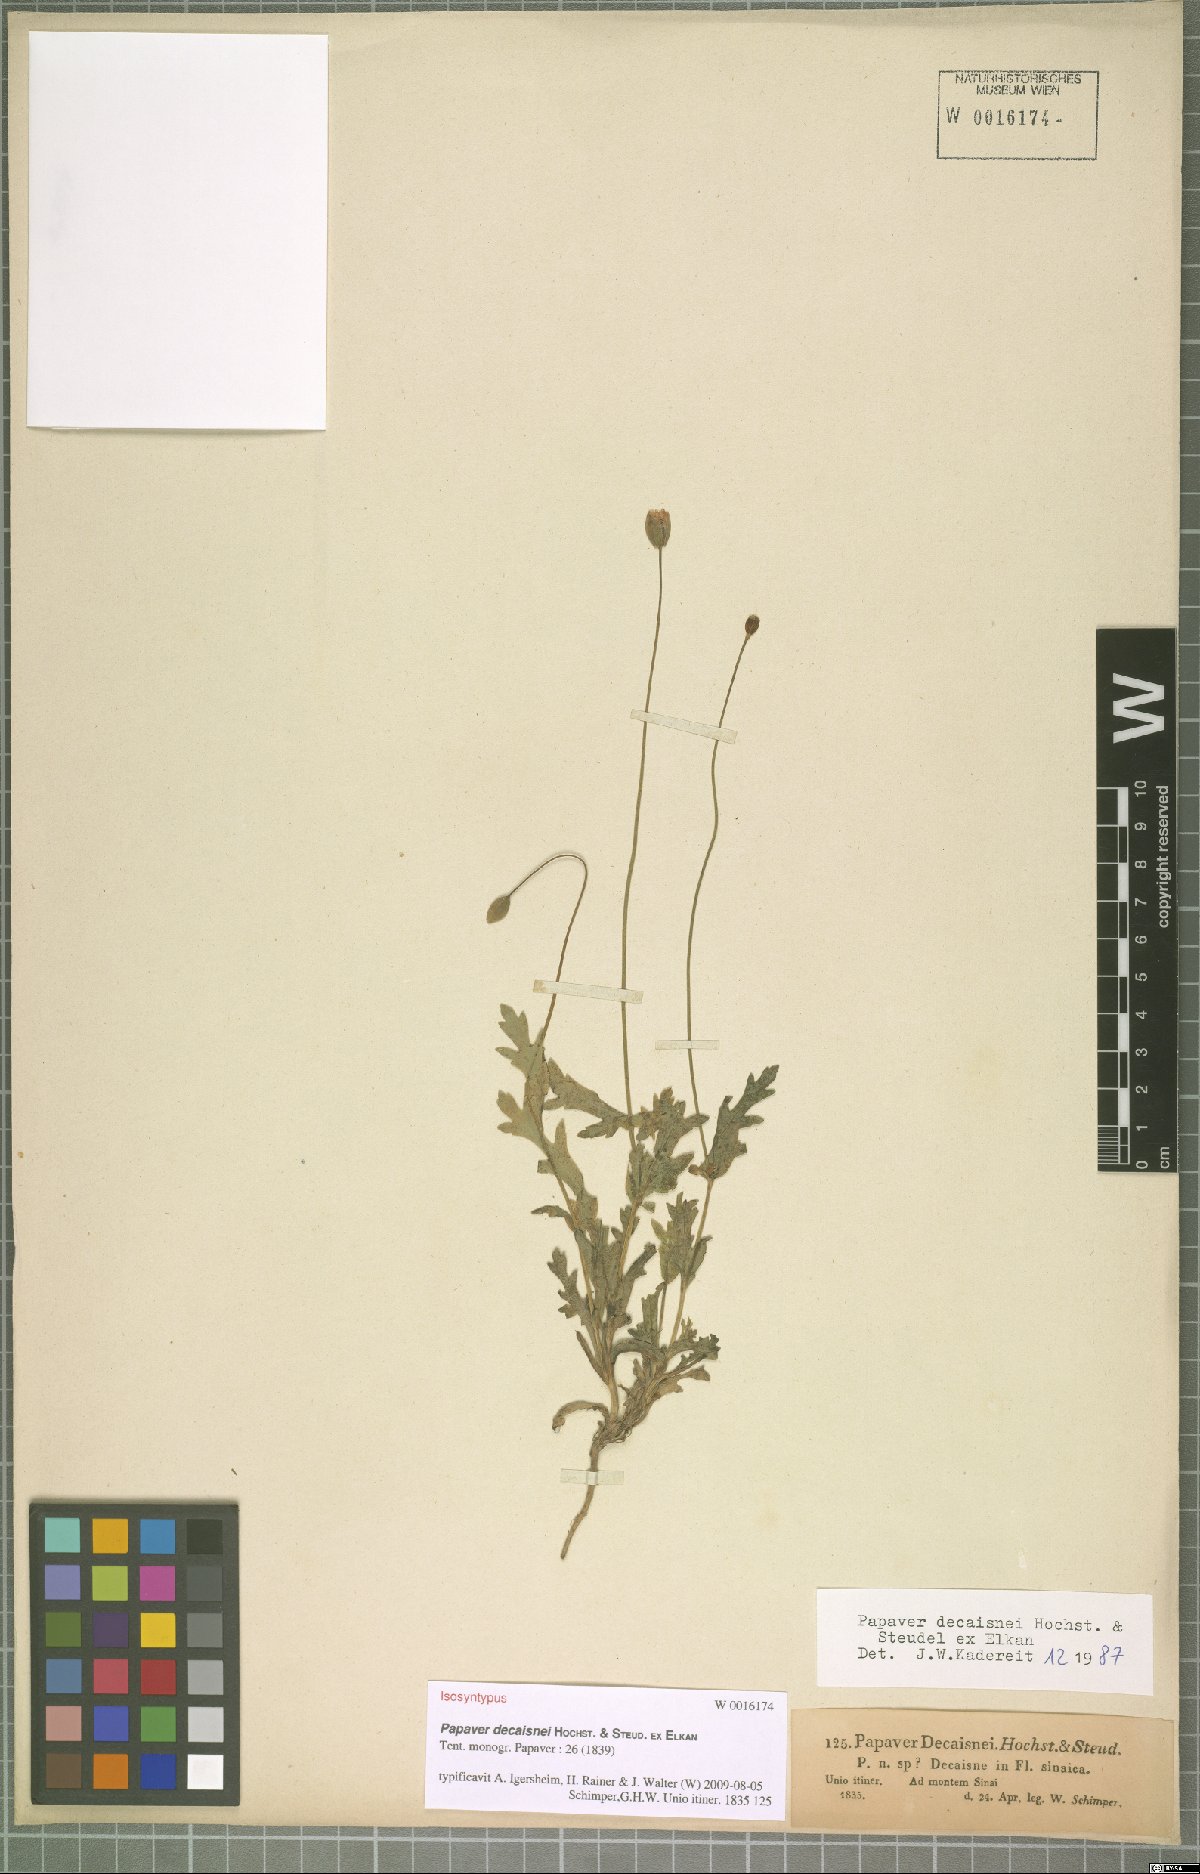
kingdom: Plantae
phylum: Tracheophyta
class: Magnoliopsida
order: Ranunculales
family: Papaveraceae
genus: Papaver
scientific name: Papaver decaisnei
